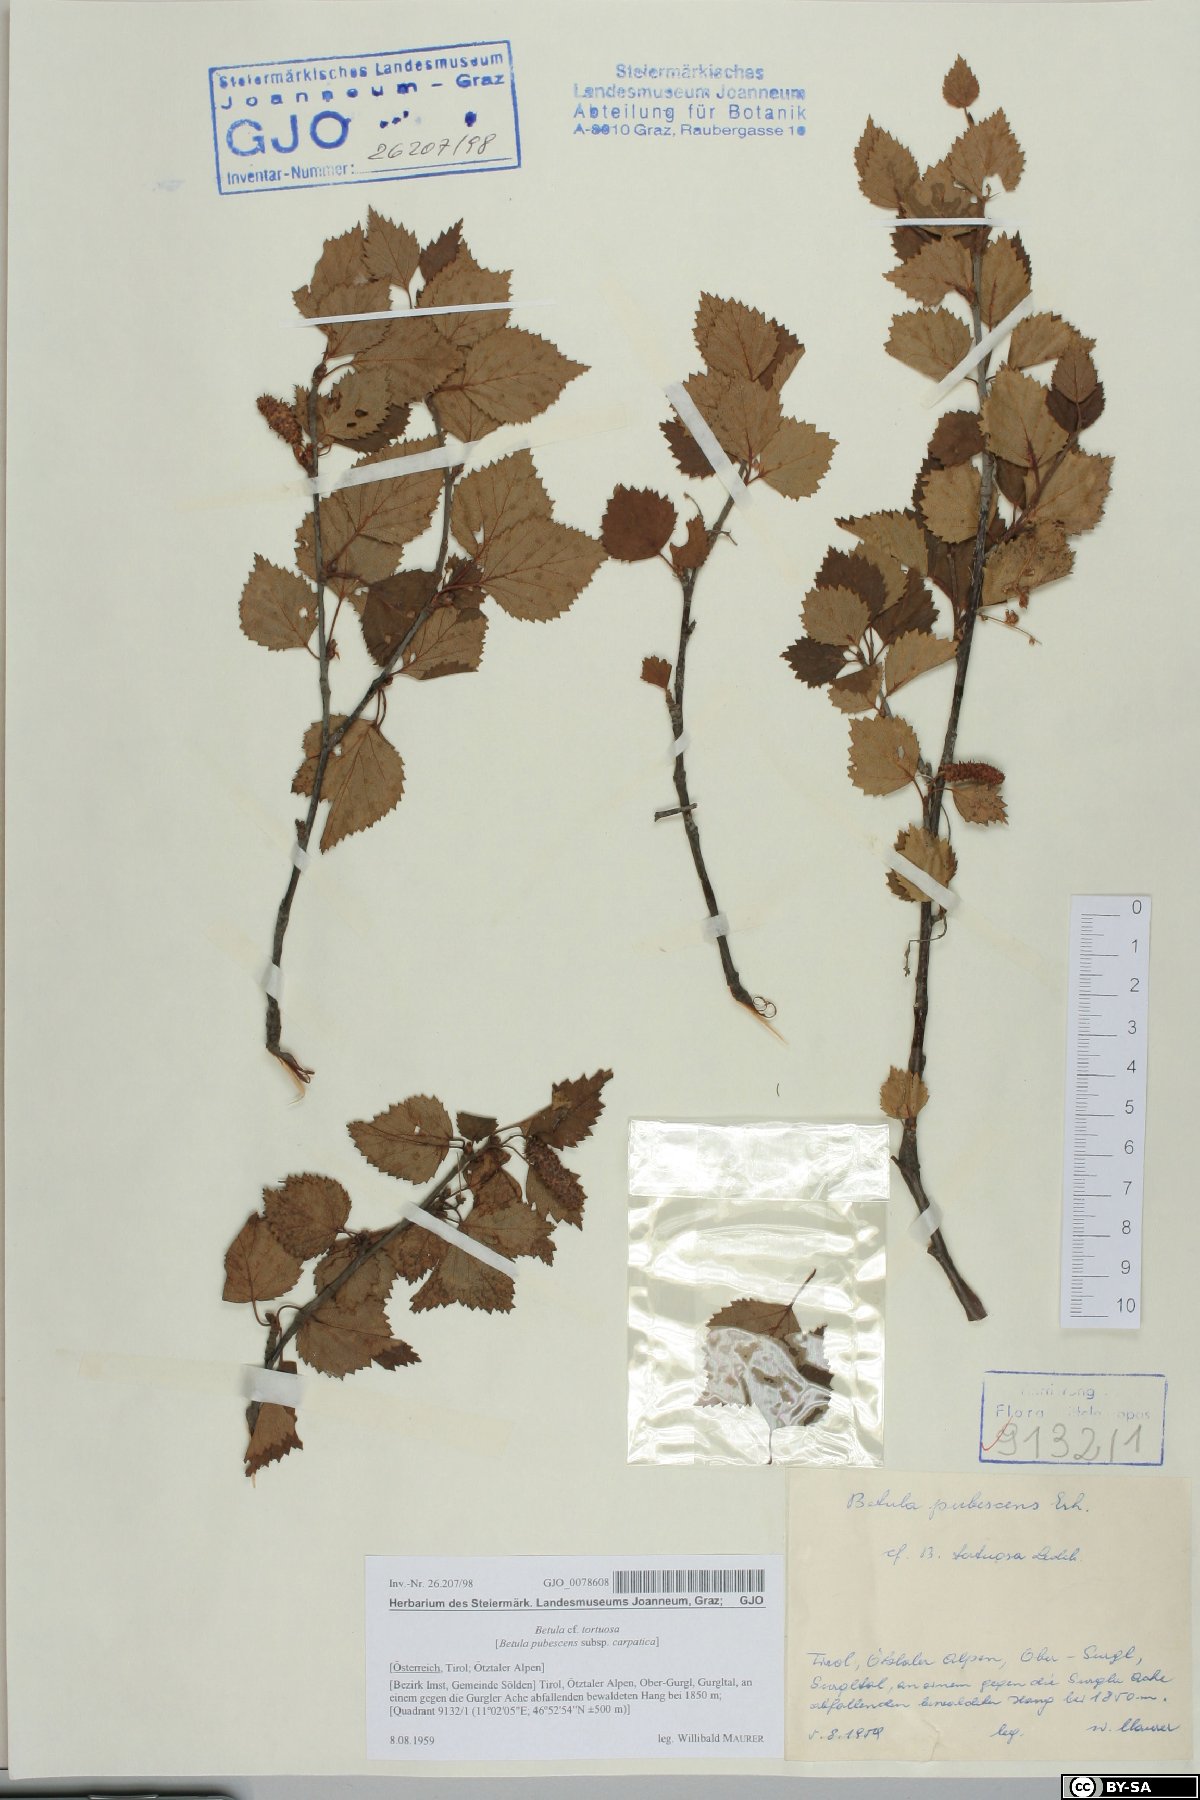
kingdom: Plantae
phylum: Tracheophyta
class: Magnoliopsida
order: Fagales
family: Betulaceae
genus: Betula
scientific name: Betula pubescens
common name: Downy birch
